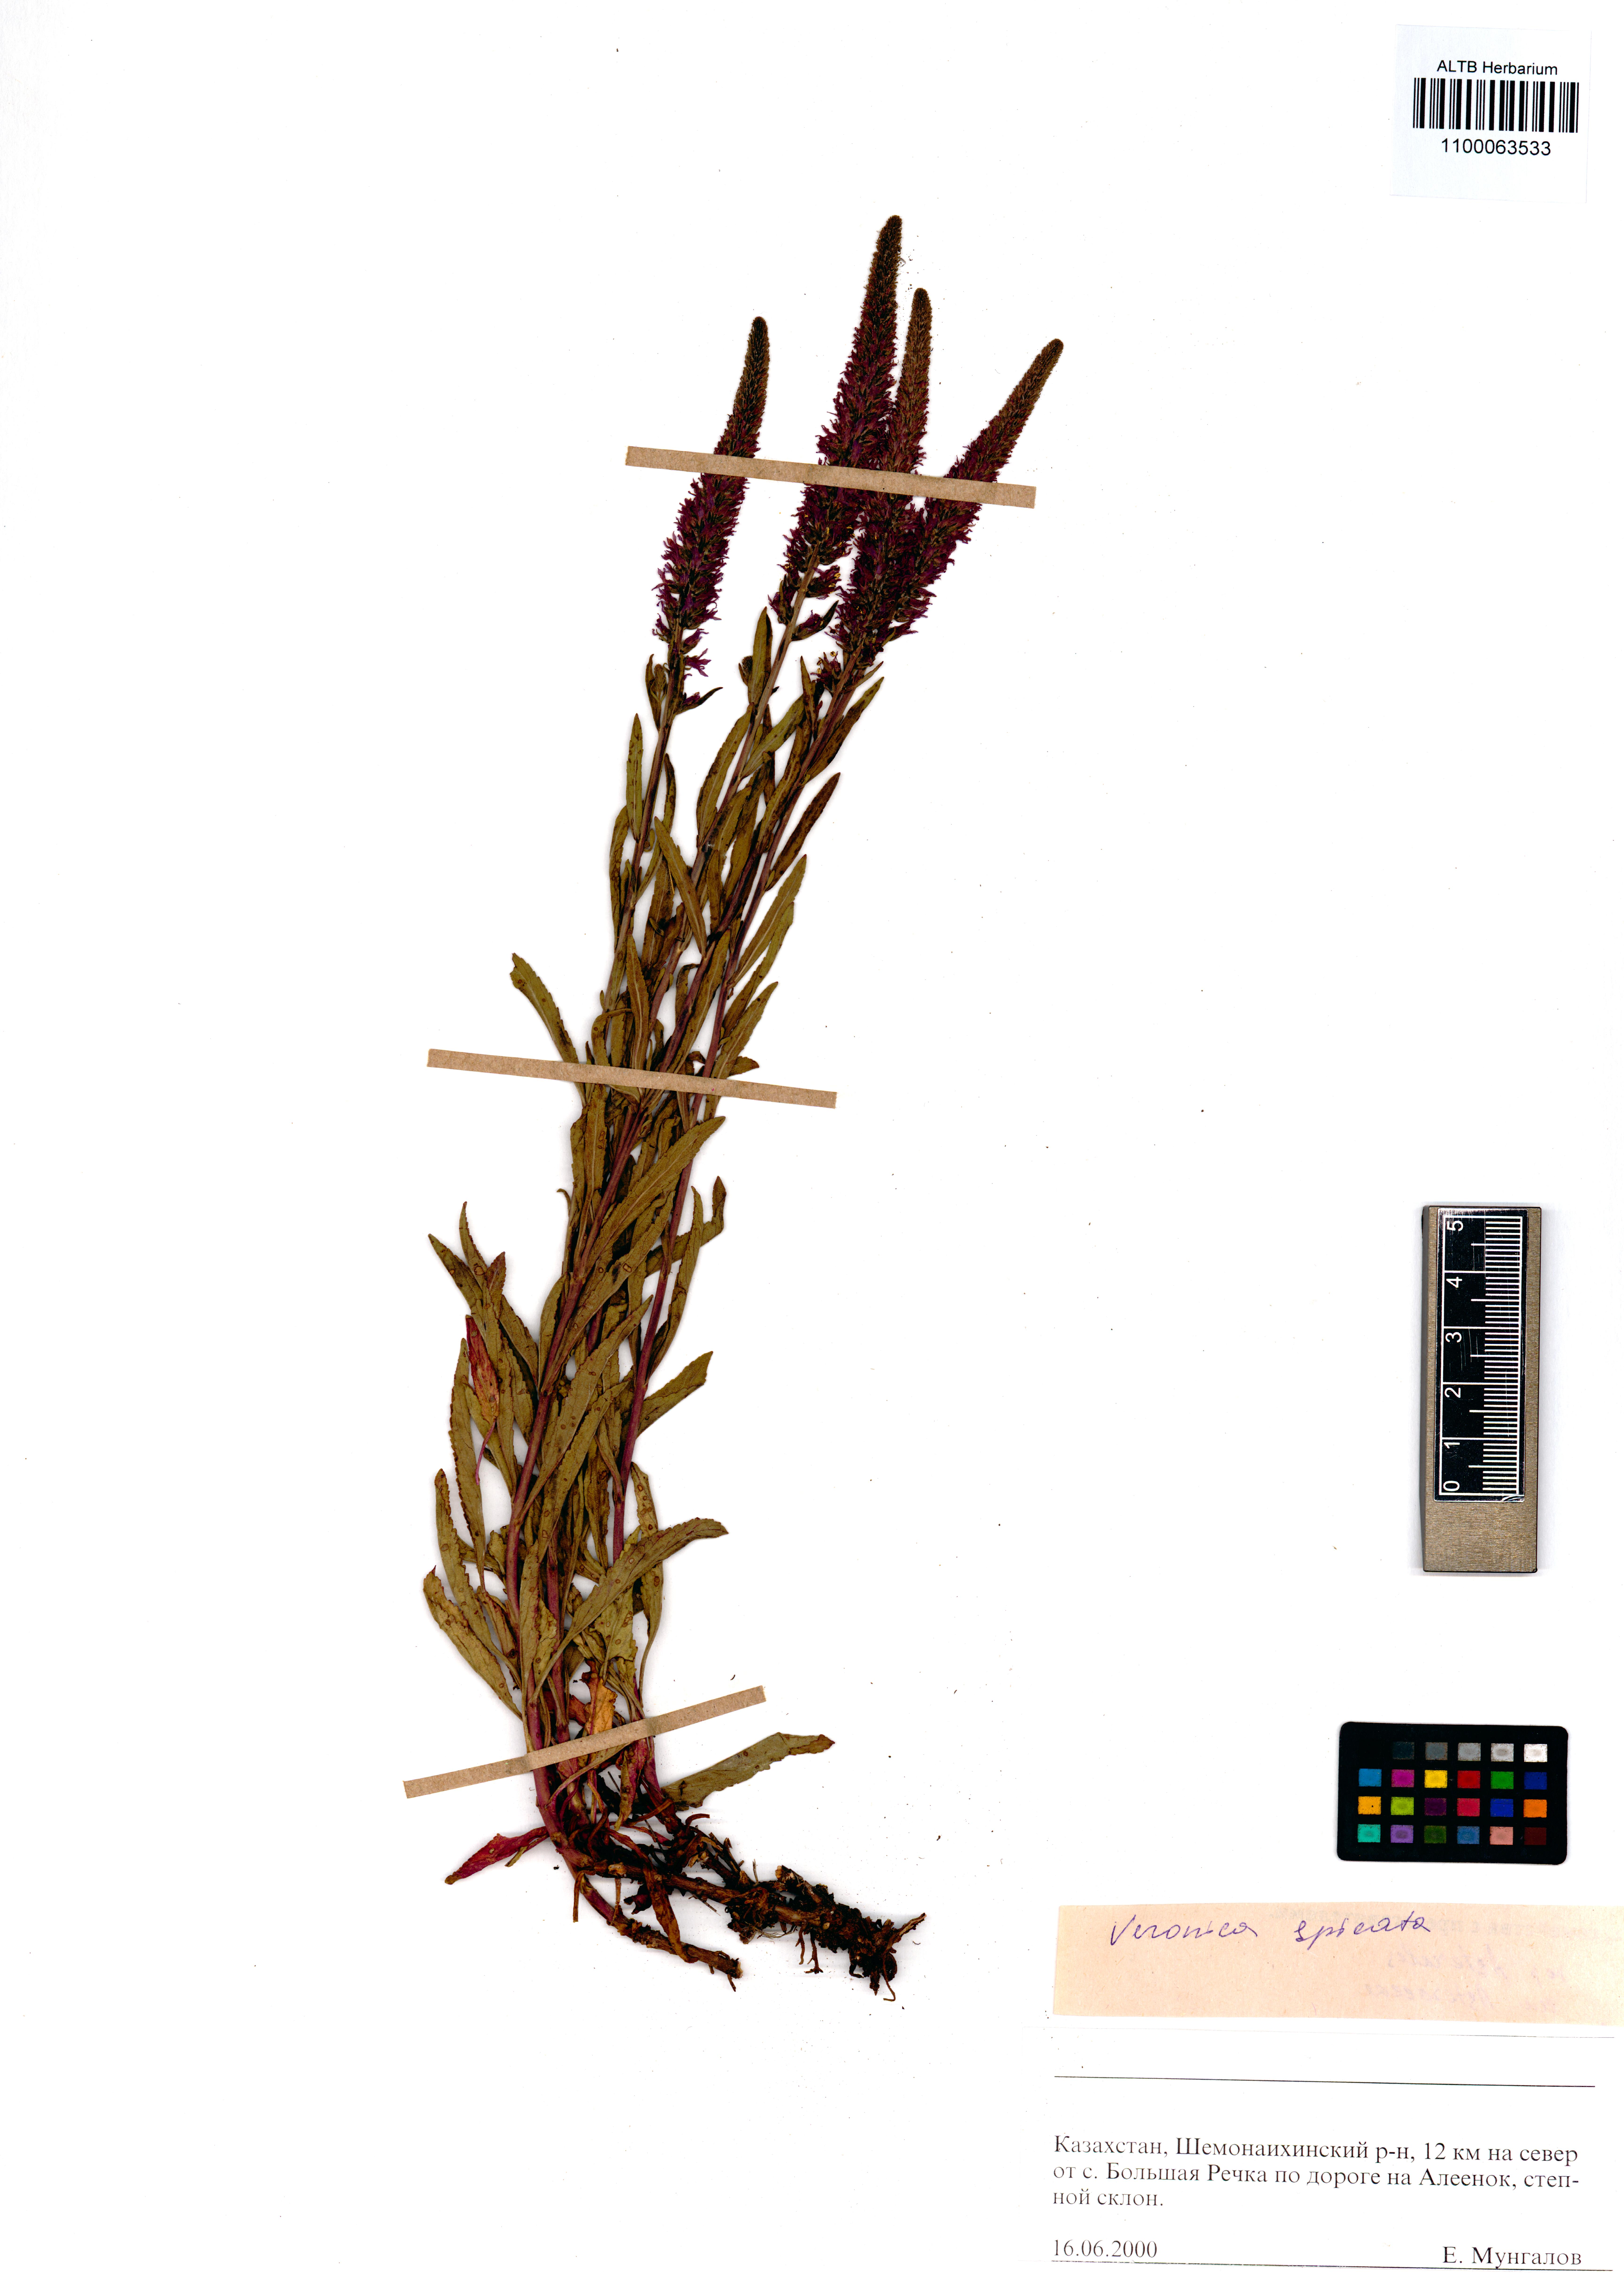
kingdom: Plantae
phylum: Tracheophyta
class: Magnoliopsida
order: Lamiales
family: Plantaginaceae
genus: Veronica
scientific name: Veronica spicata
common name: Spiked speedwell
